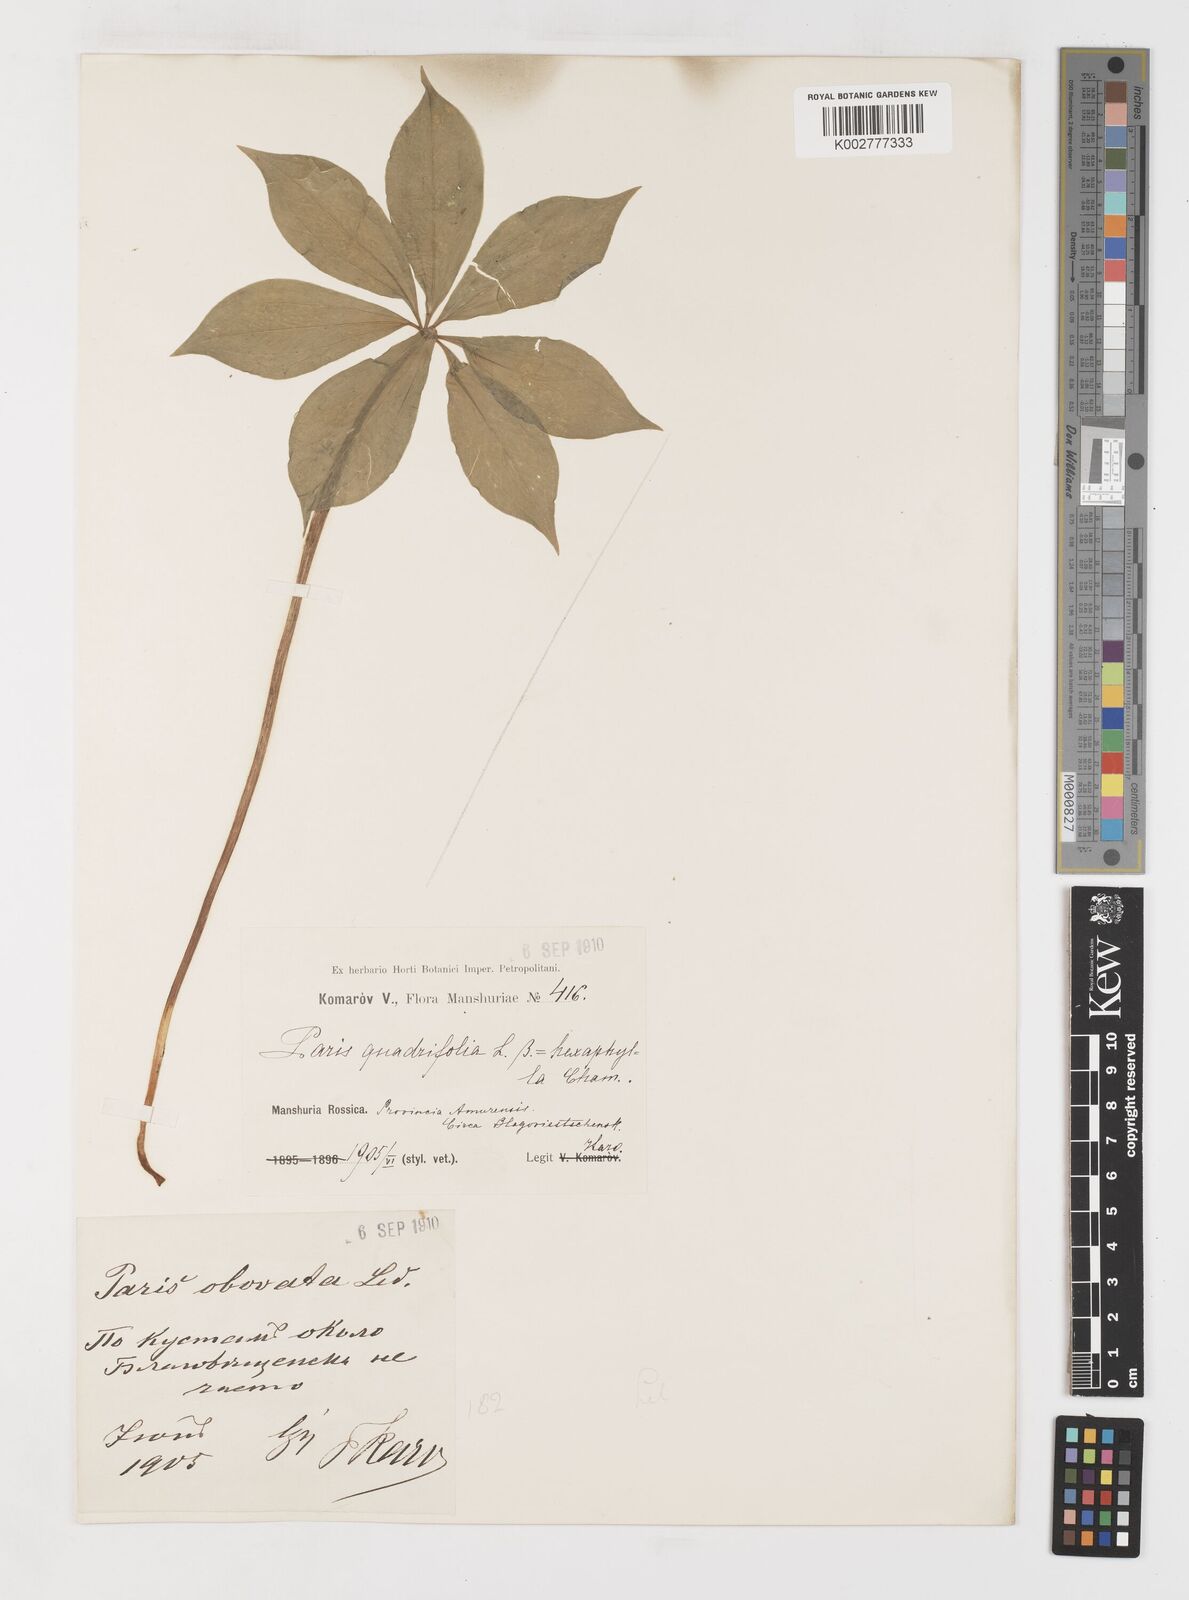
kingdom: Plantae
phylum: Tracheophyta
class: Liliopsida
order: Liliales
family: Melanthiaceae
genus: Paris
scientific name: Paris incompleta
